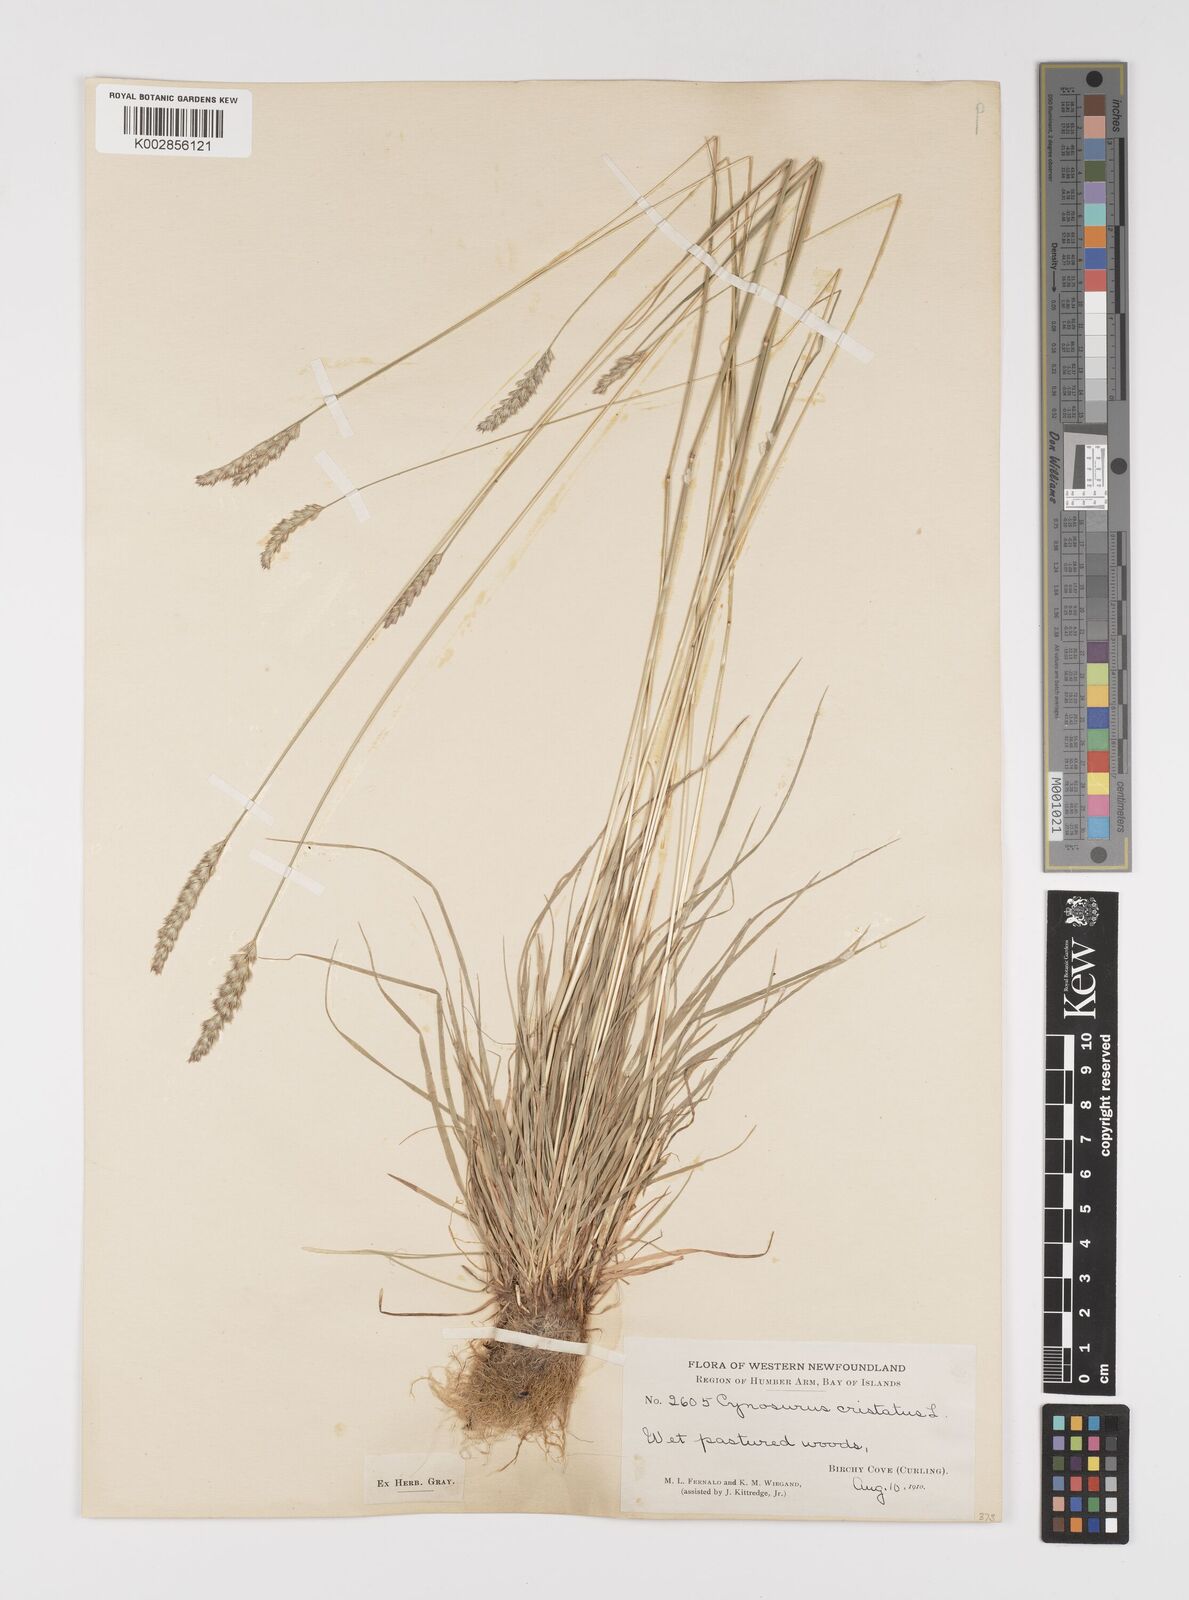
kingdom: Plantae
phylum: Tracheophyta
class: Liliopsida
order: Poales
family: Poaceae
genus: Cynosurus
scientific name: Cynosurus cristatus
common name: Crested dog's-tail
